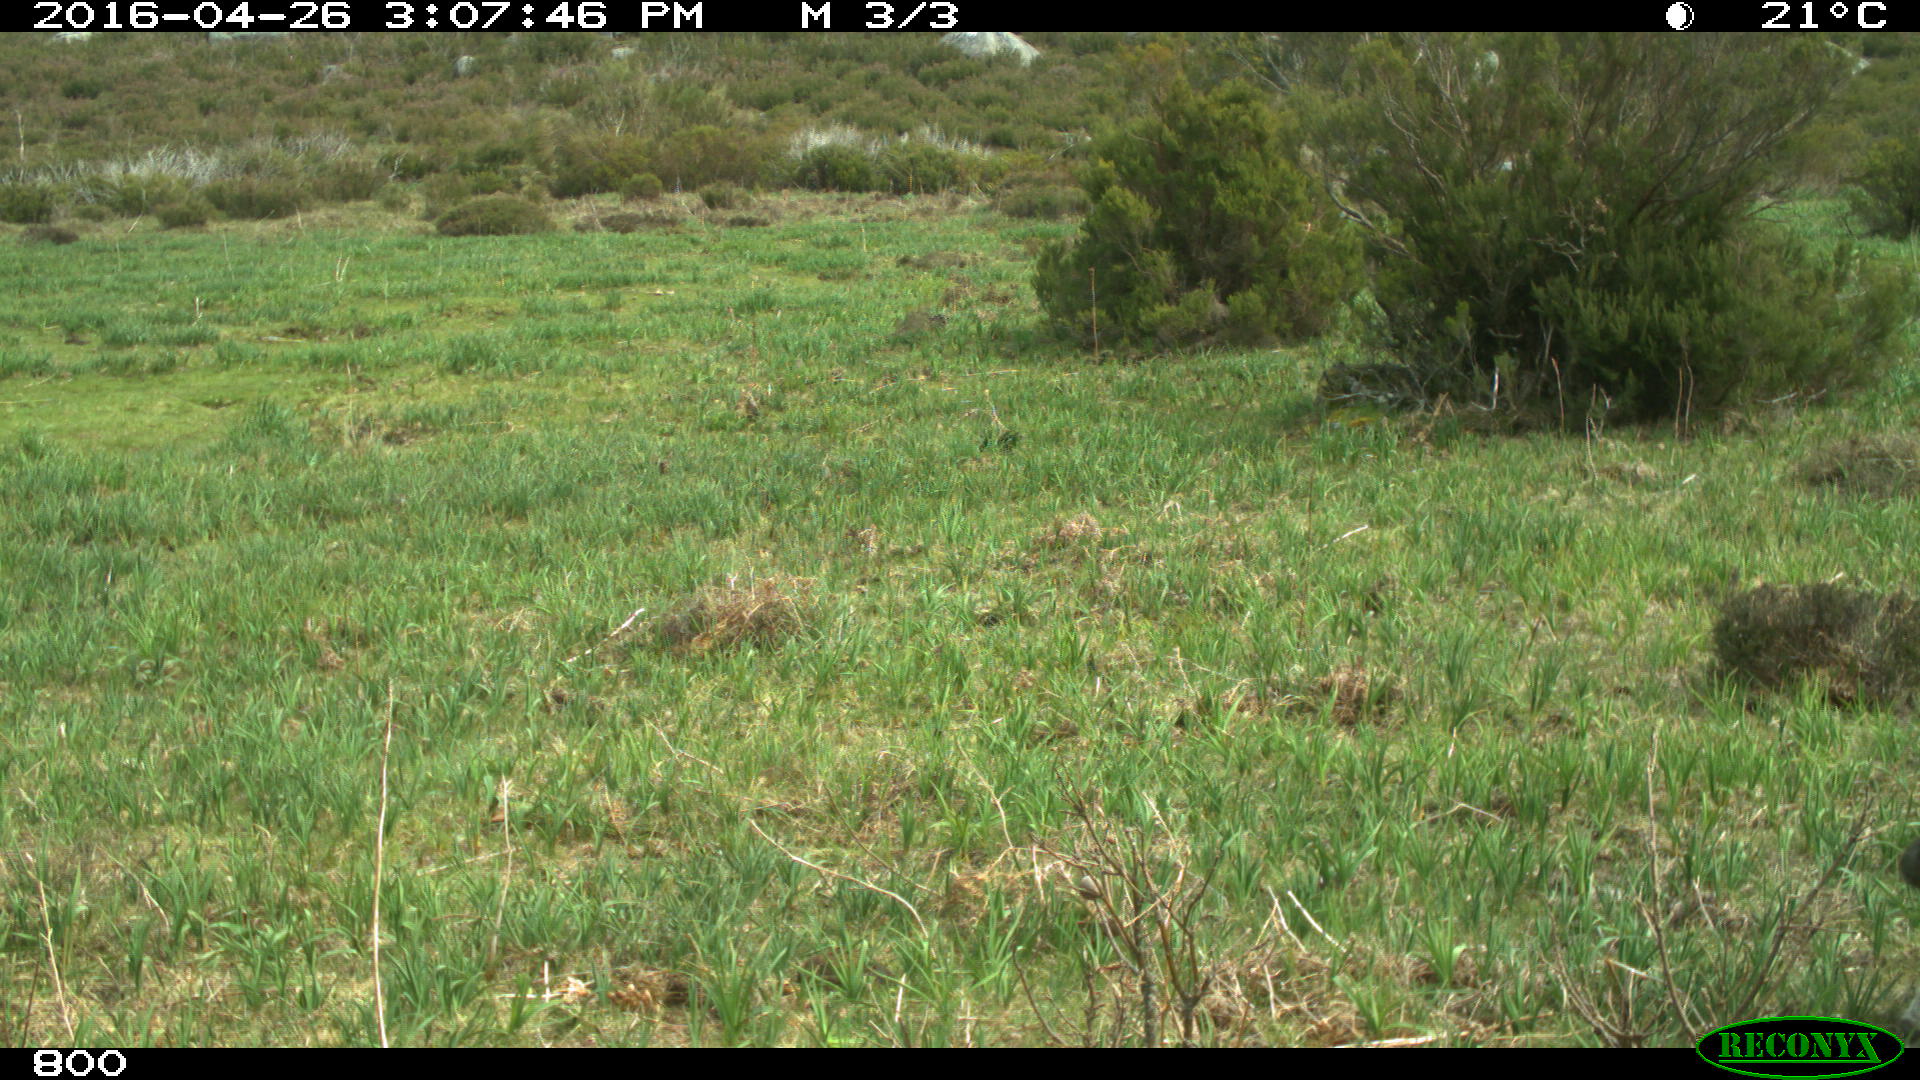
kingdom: Animalia
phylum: Chordata
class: Mammalia
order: Artiodactyla
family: Bovidae
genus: Bos
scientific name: Bos taurus
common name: Domesticated cattle
